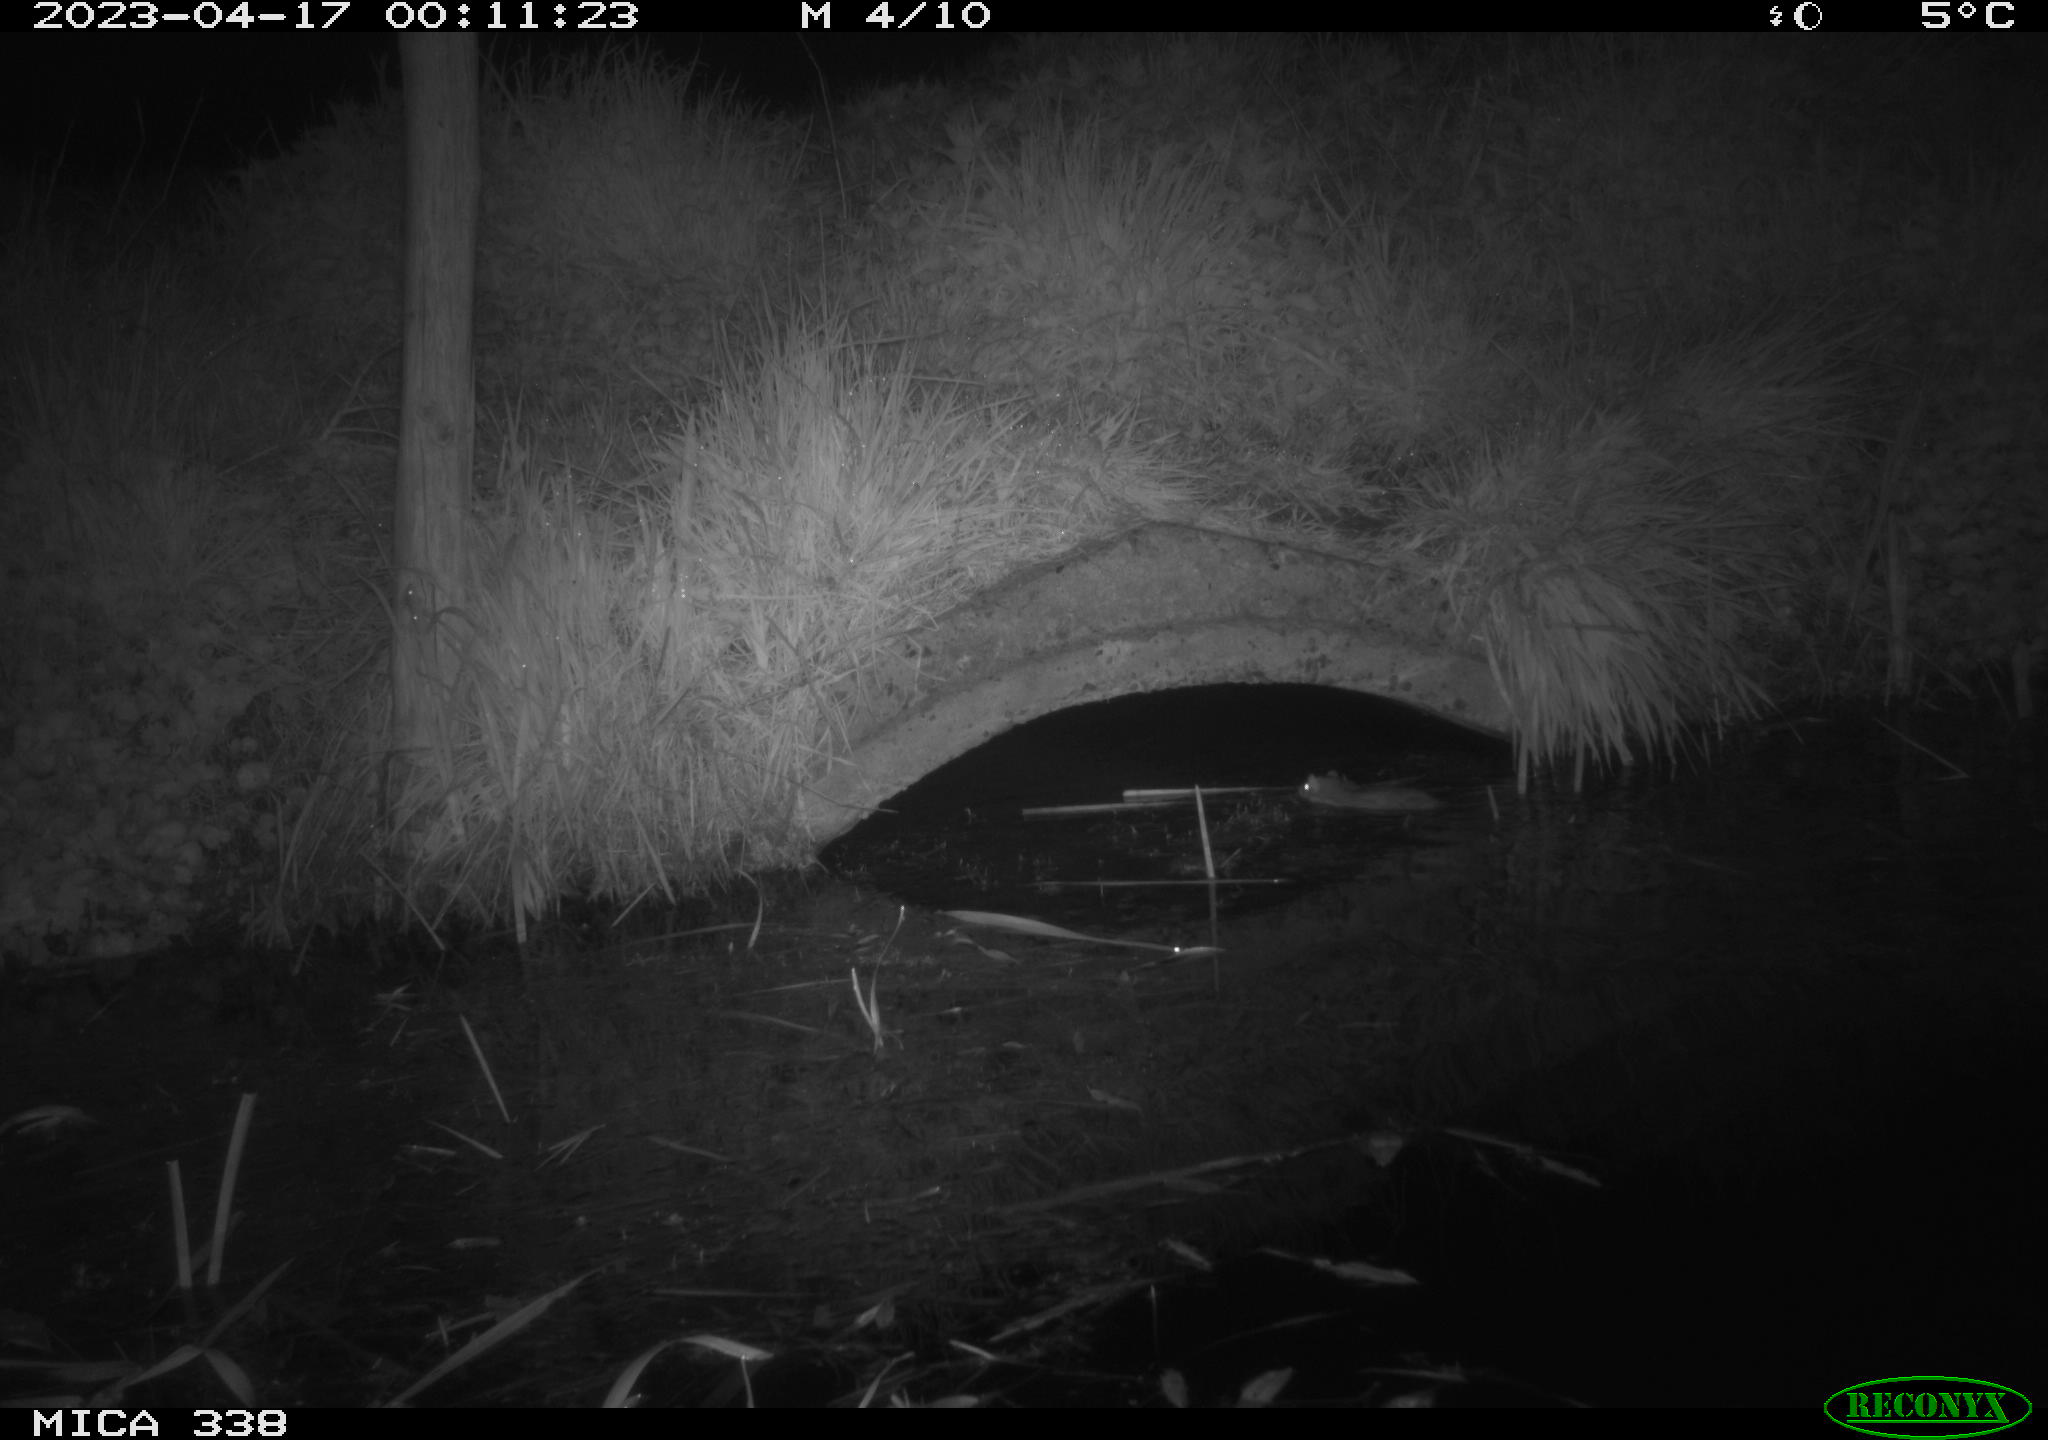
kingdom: Animalia
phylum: Chordata
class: Mammalia
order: Rodentia
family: Muridae
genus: Rattus
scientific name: Rattus norvegicus
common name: Brown rat
